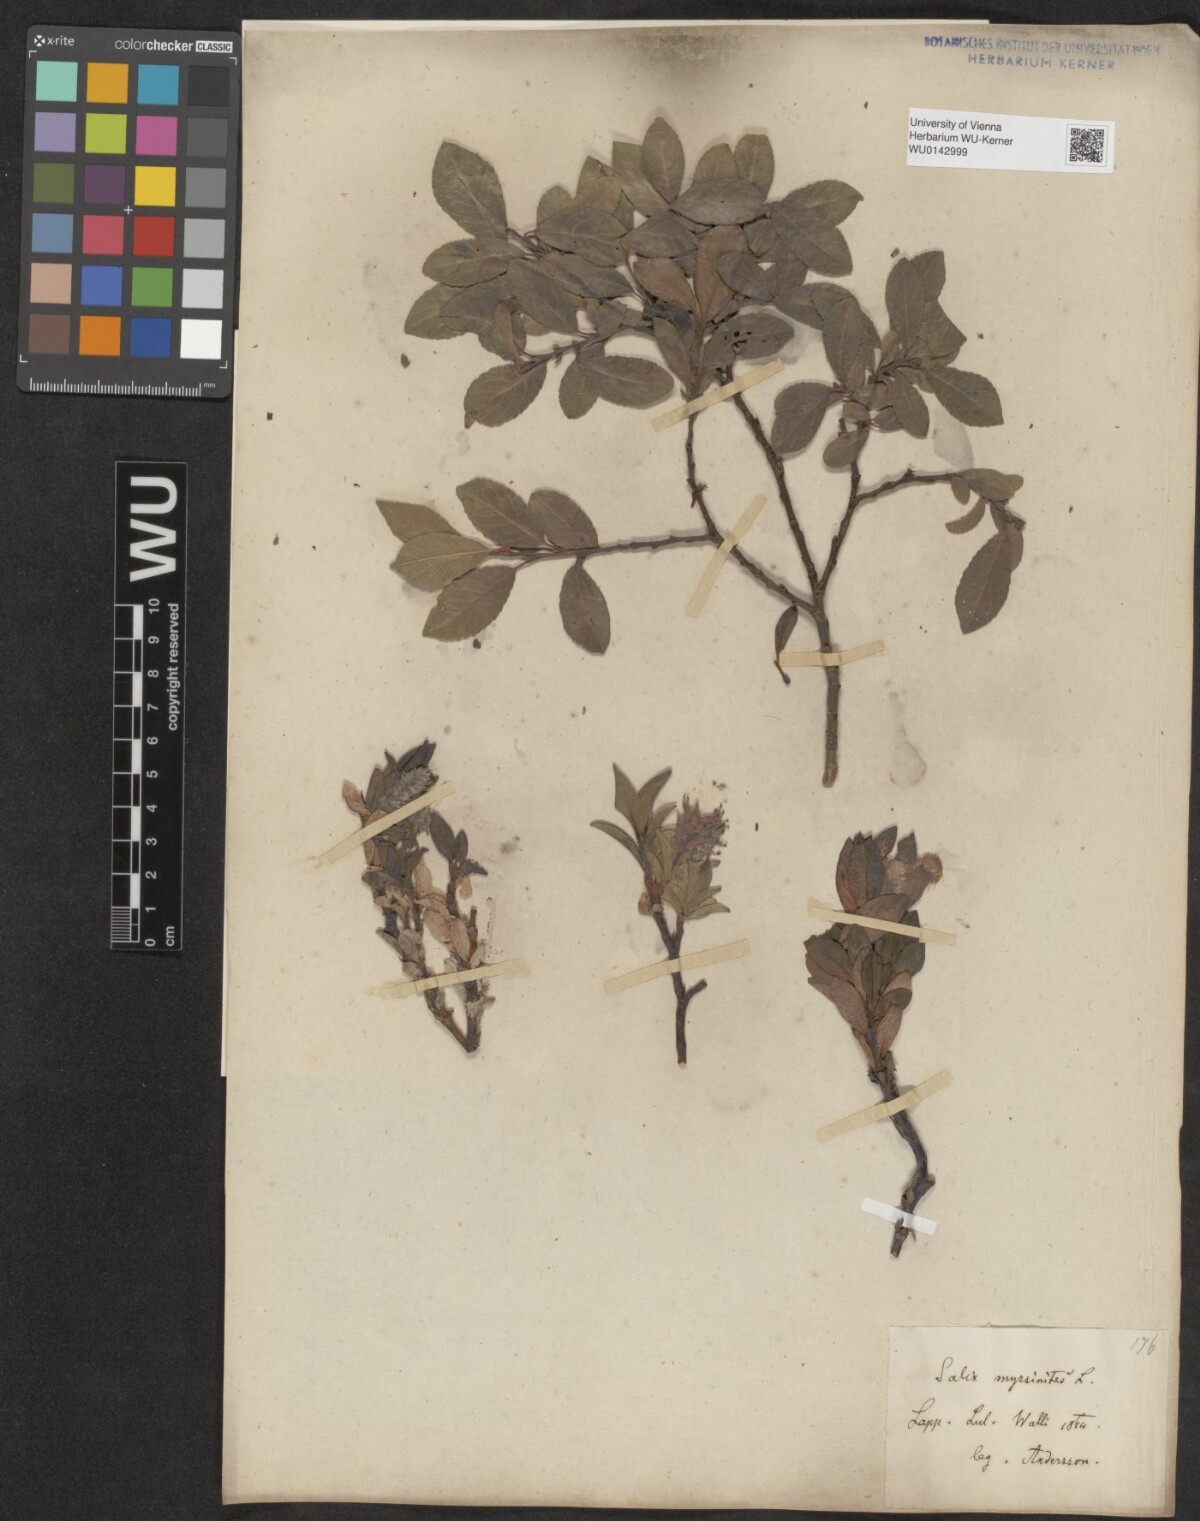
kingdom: Plantae
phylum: Tracheophyta
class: Magnoliopsida
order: Malpighiales
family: Salicaceae
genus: Salix
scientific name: Salix myrsinites
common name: Myrtle willow
